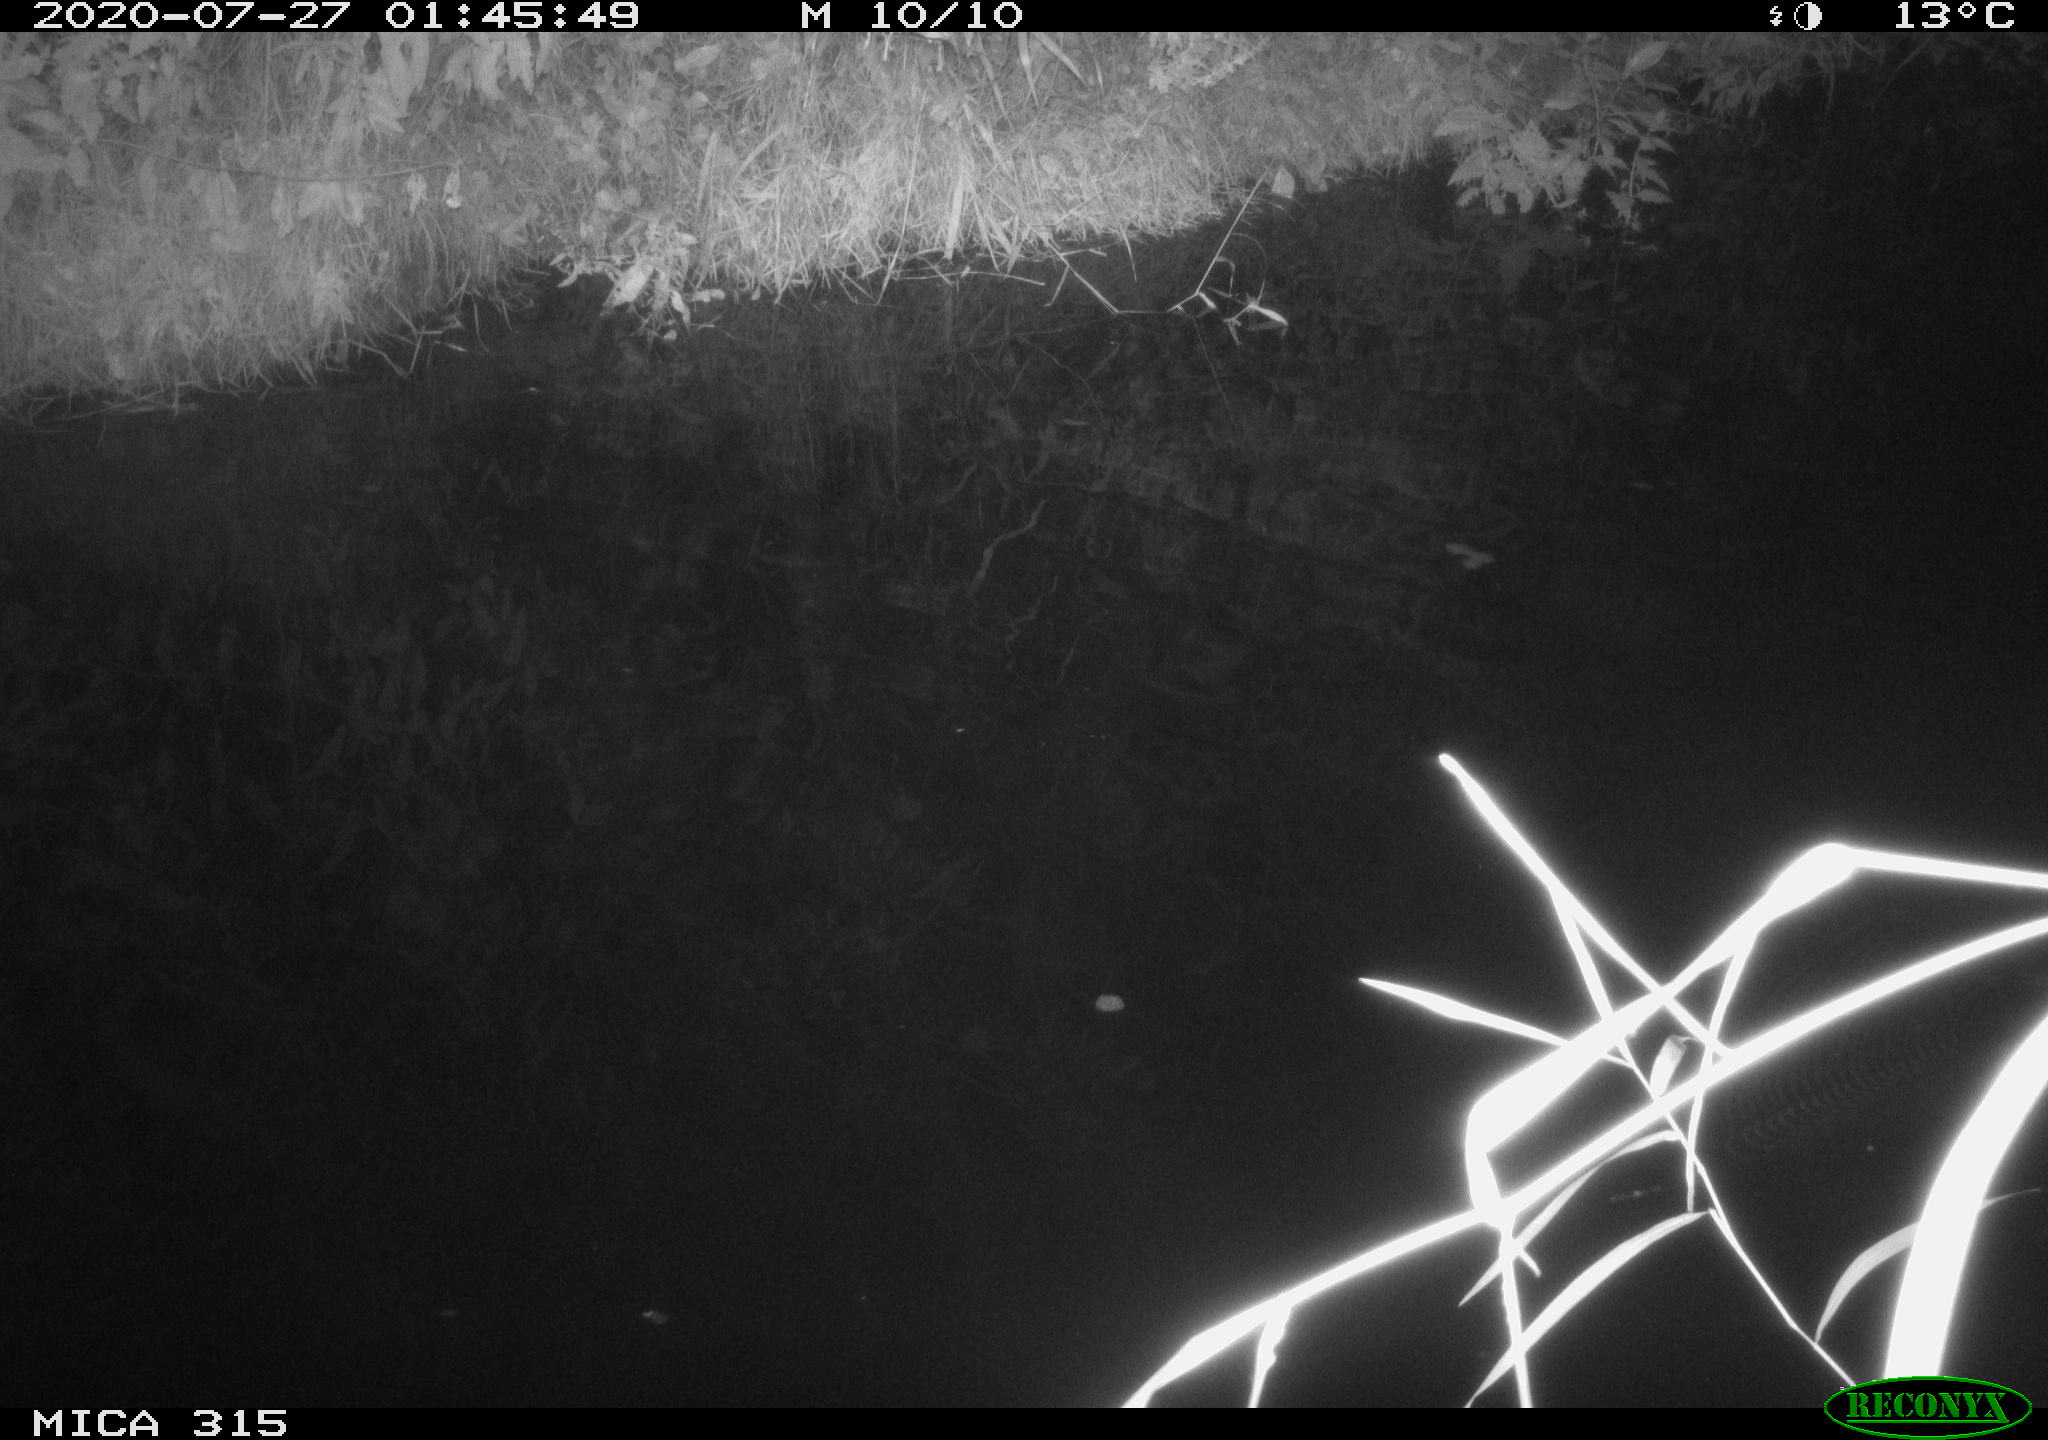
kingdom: Animalia
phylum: Chordata
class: Aves
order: Anseriformes
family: Anatidae
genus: Anas
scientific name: Anas platyrhynchos
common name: Mallard
